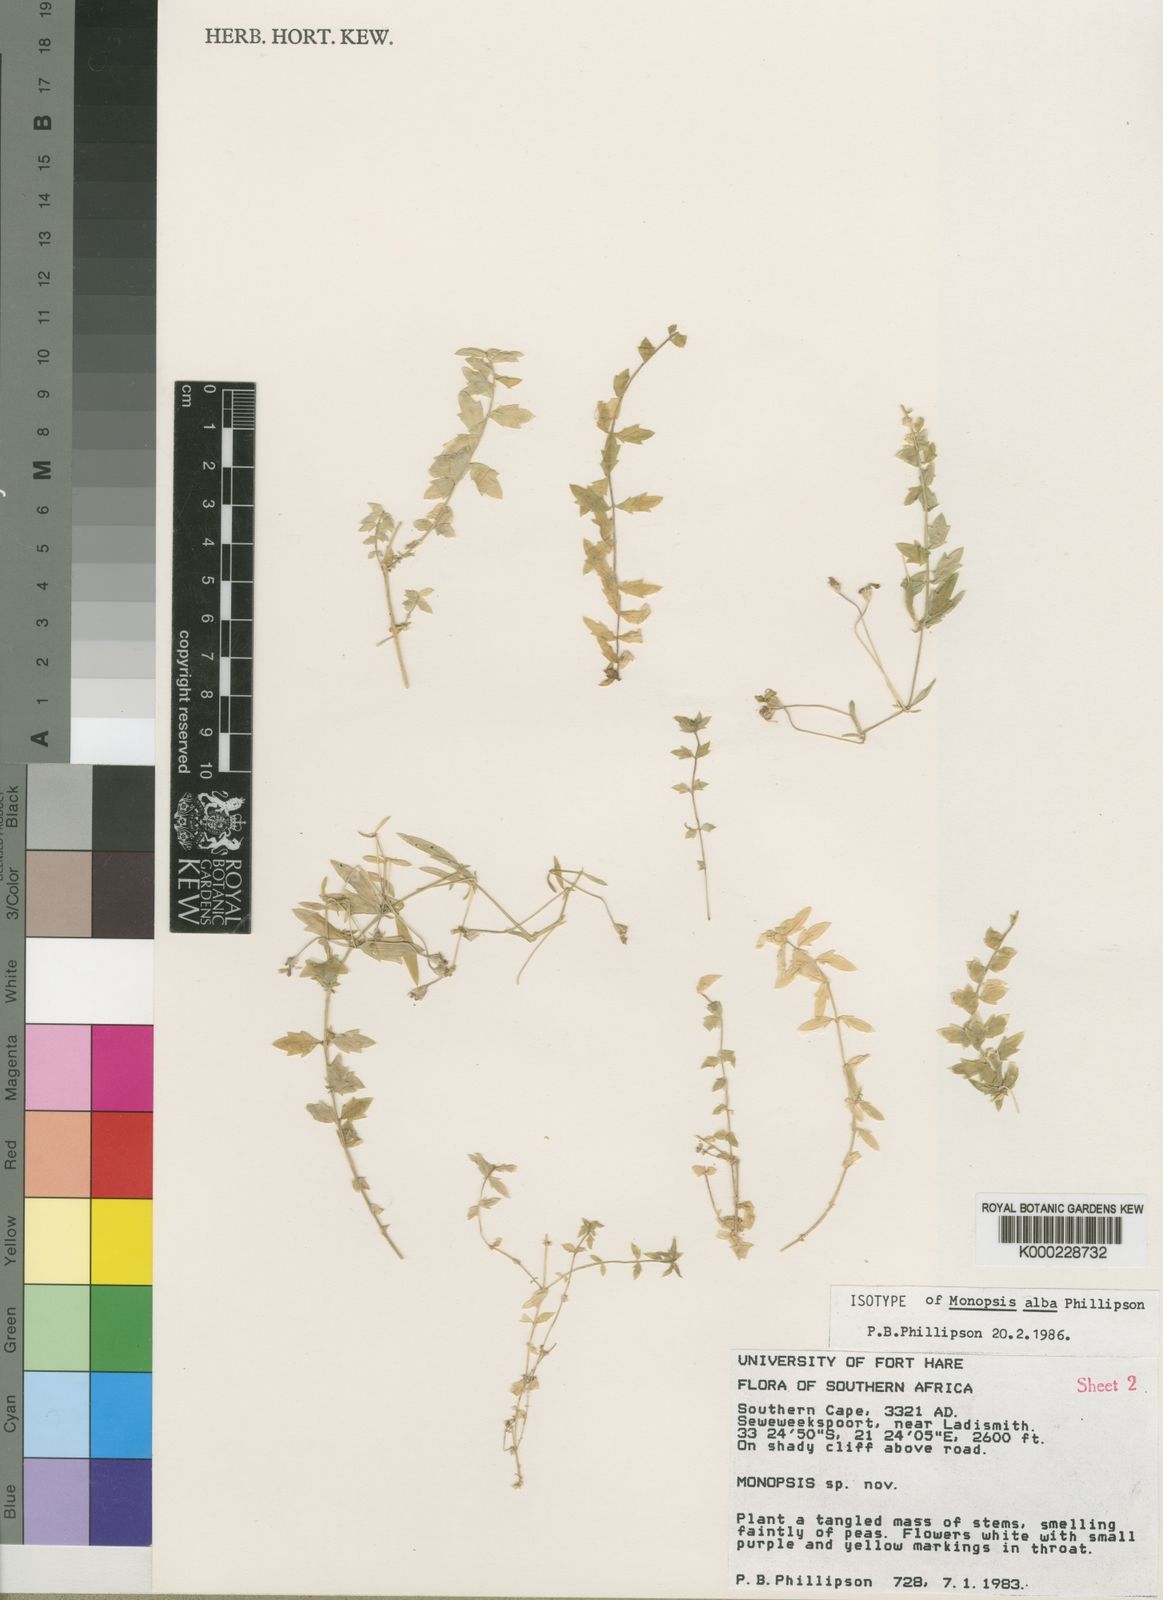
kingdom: Plantae
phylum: Tracheophyta
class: Magnoliopsida
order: Asterales
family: Campanulaceae
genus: Monopsis
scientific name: Monopsis alba
